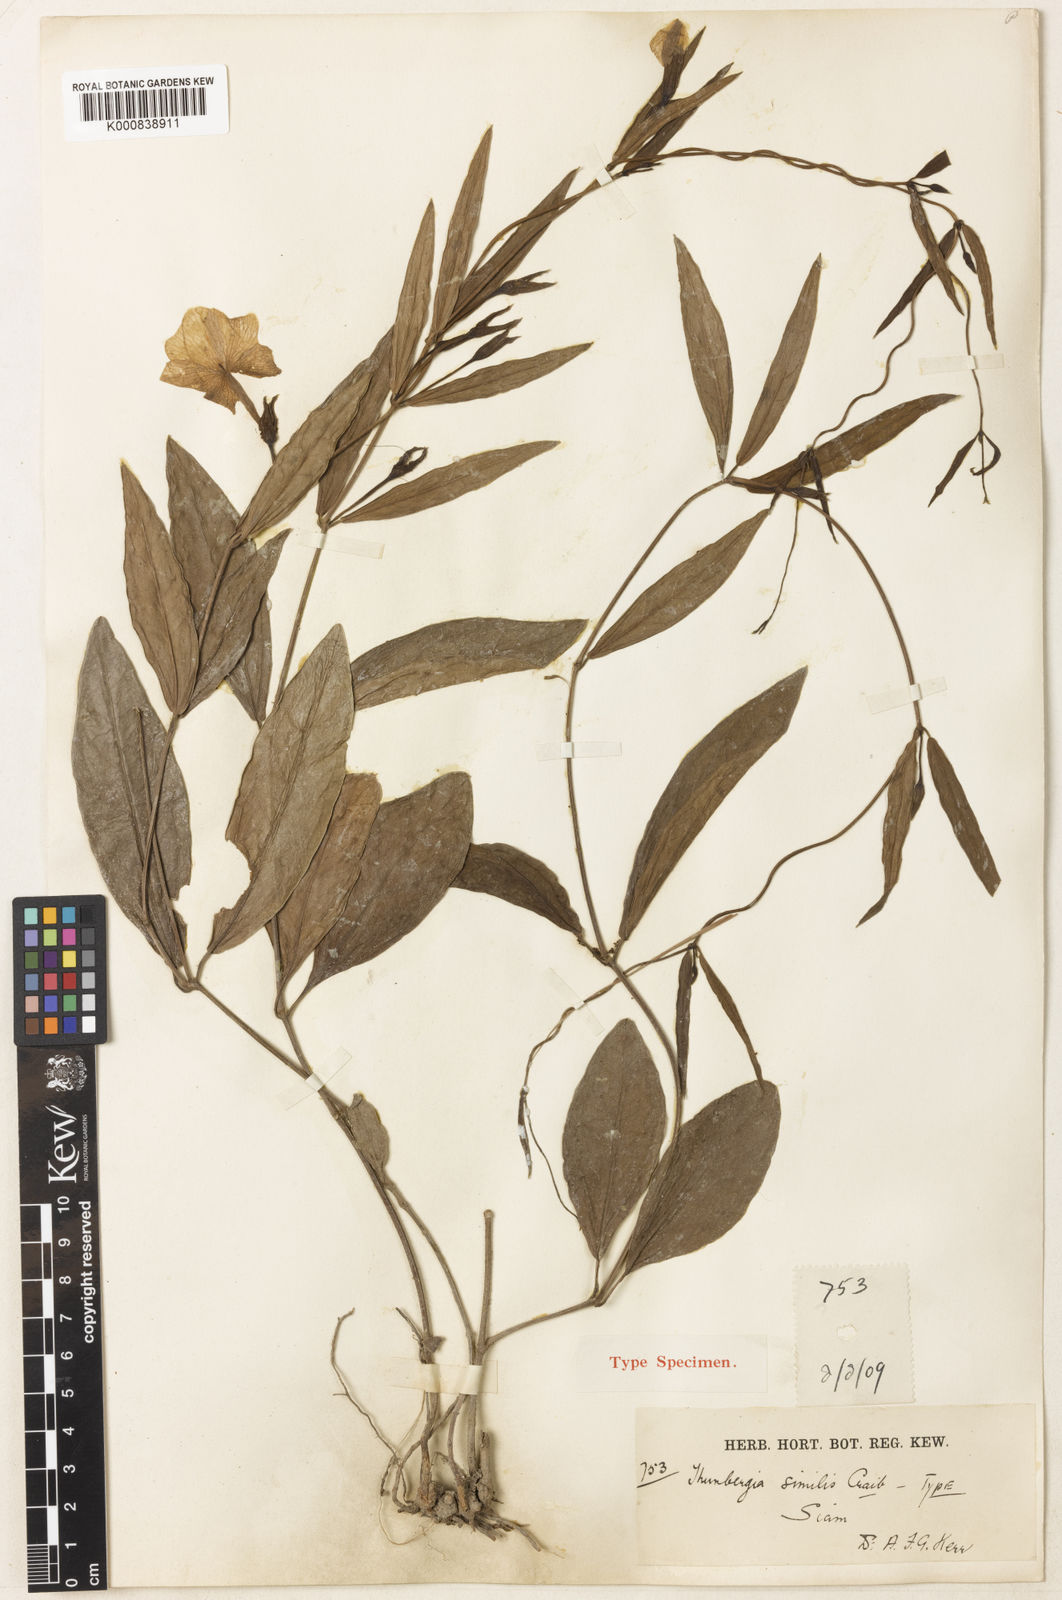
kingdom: Plantae
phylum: Tracheophyta
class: Magnoliopsida
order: Lamiales
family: Acanthaceae
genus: Thunbergia
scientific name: Thunbergia fragrans
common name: Whitelady
